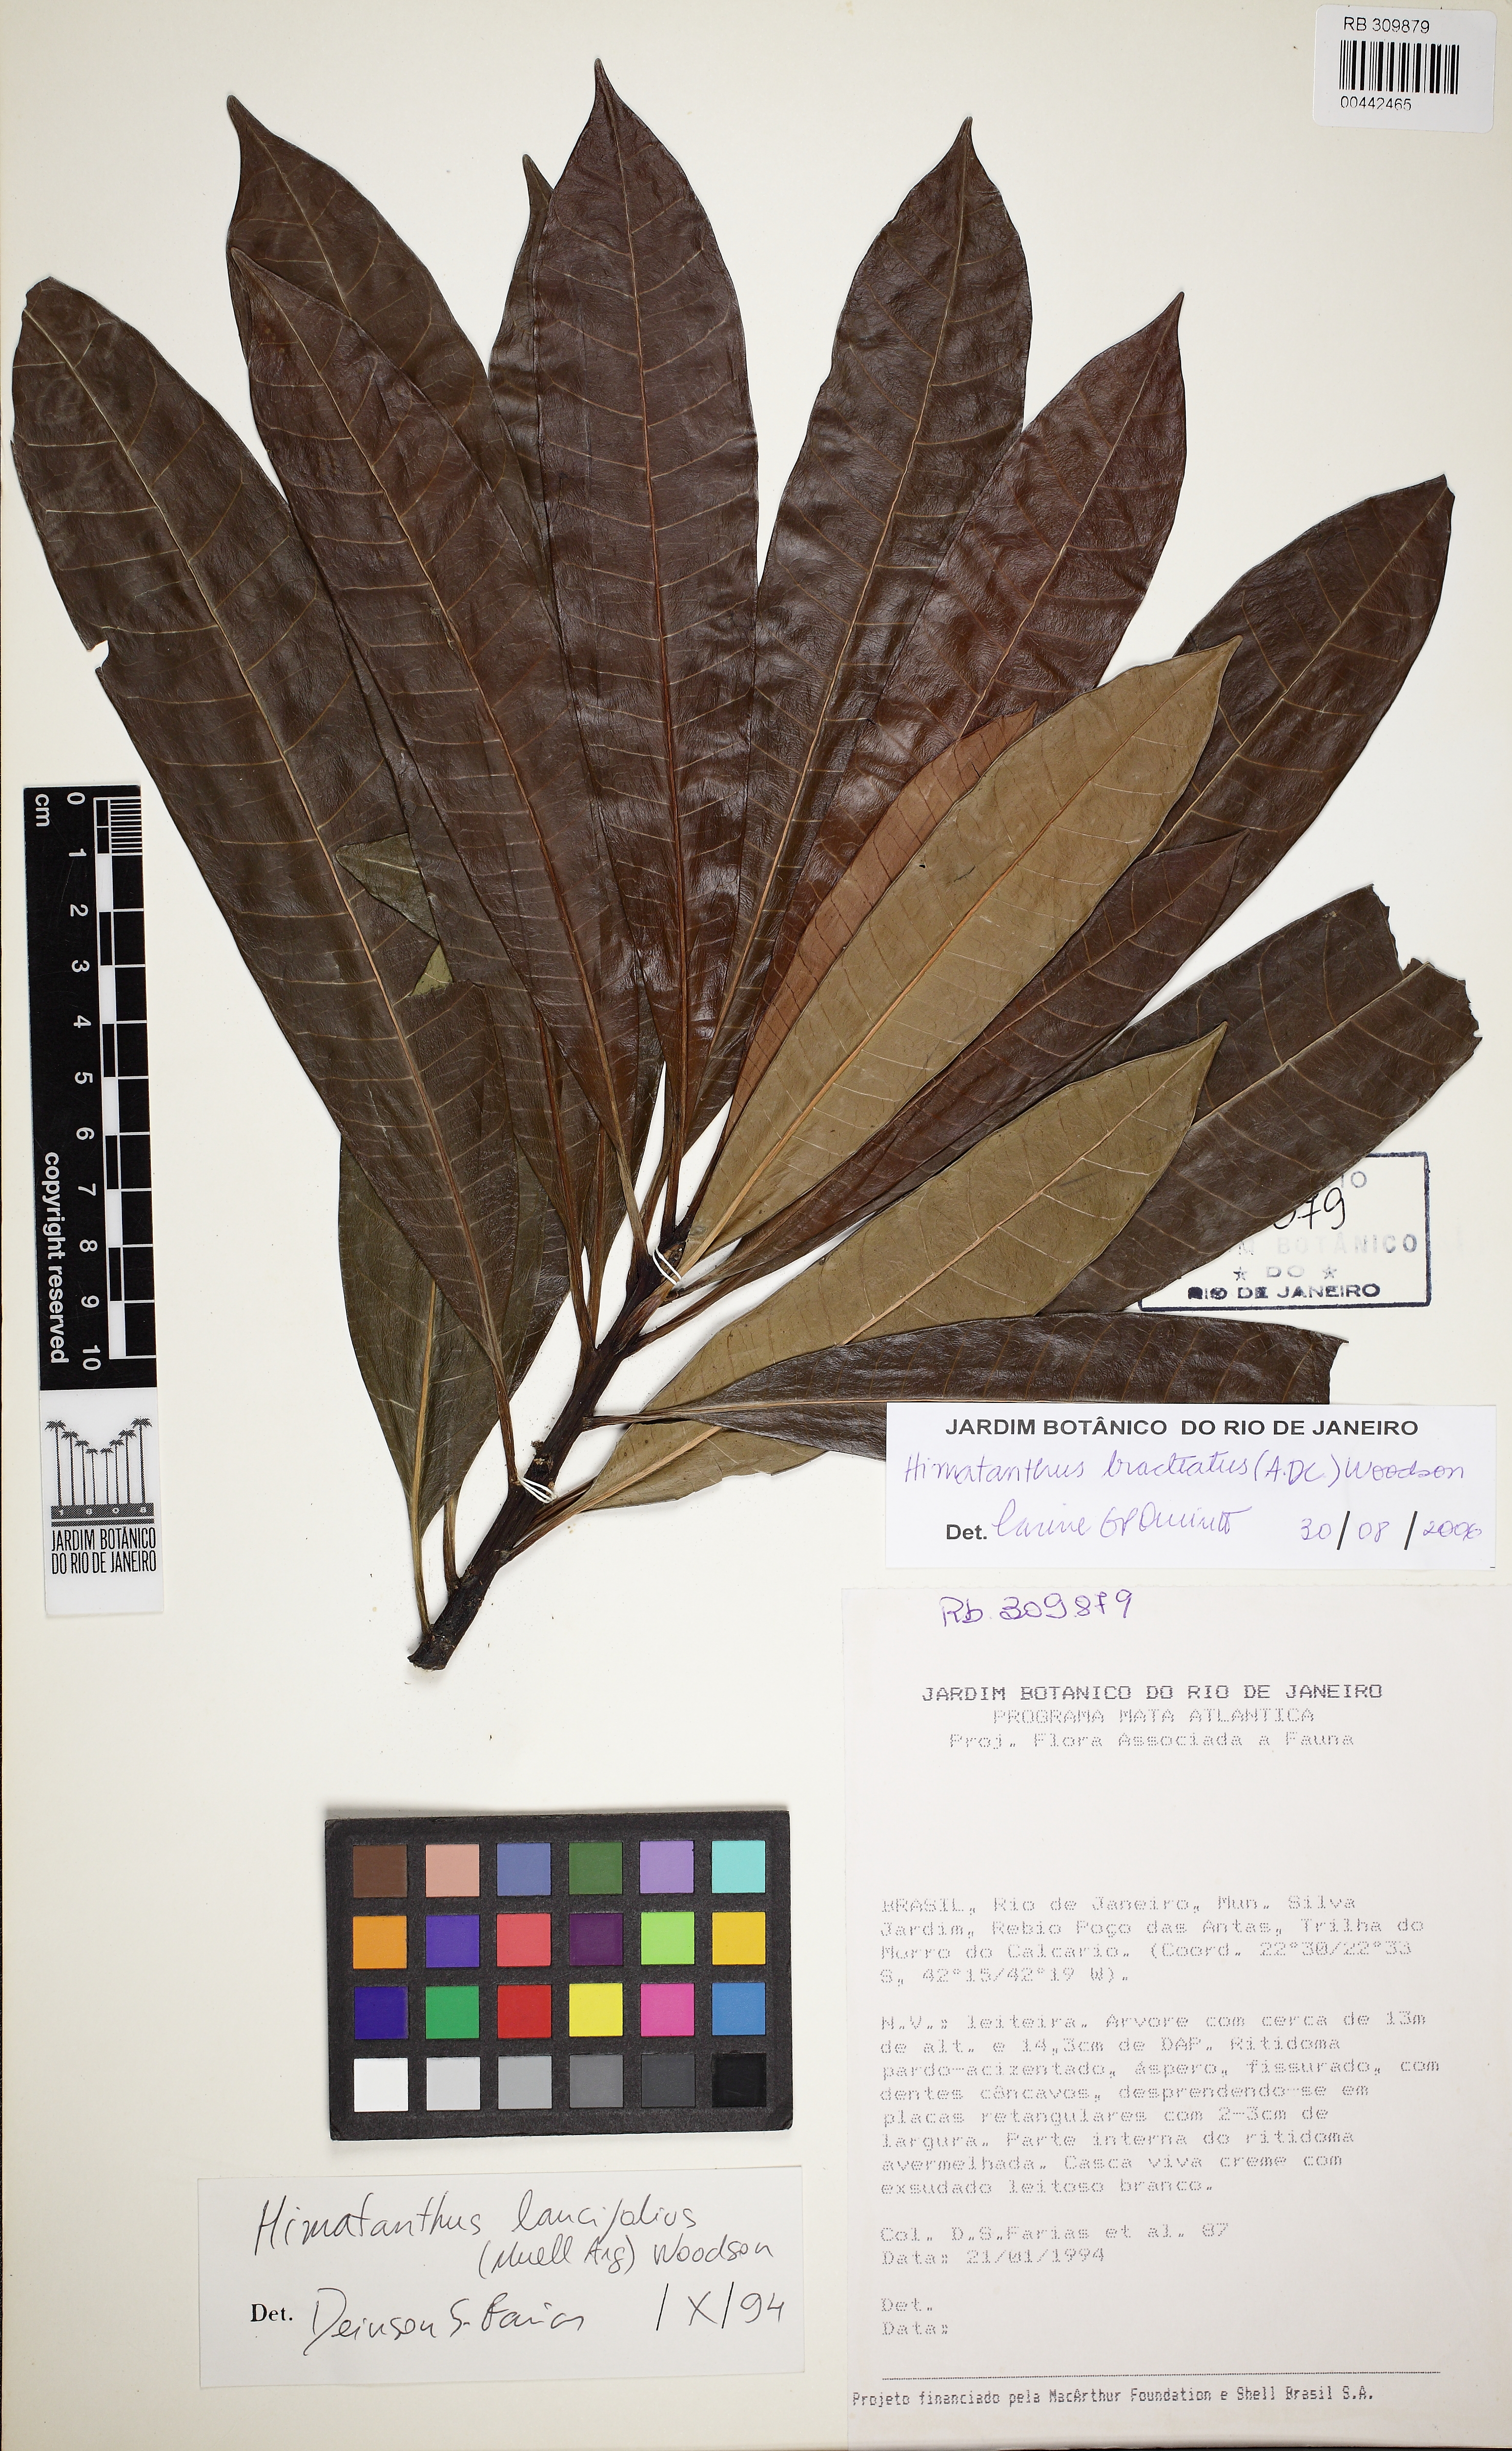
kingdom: Plantae
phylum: Tracheophyta
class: Magnoliopsida
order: Gentianales
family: Apocynaceae
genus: Himatanthus
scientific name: Himatanthus bracteatus
